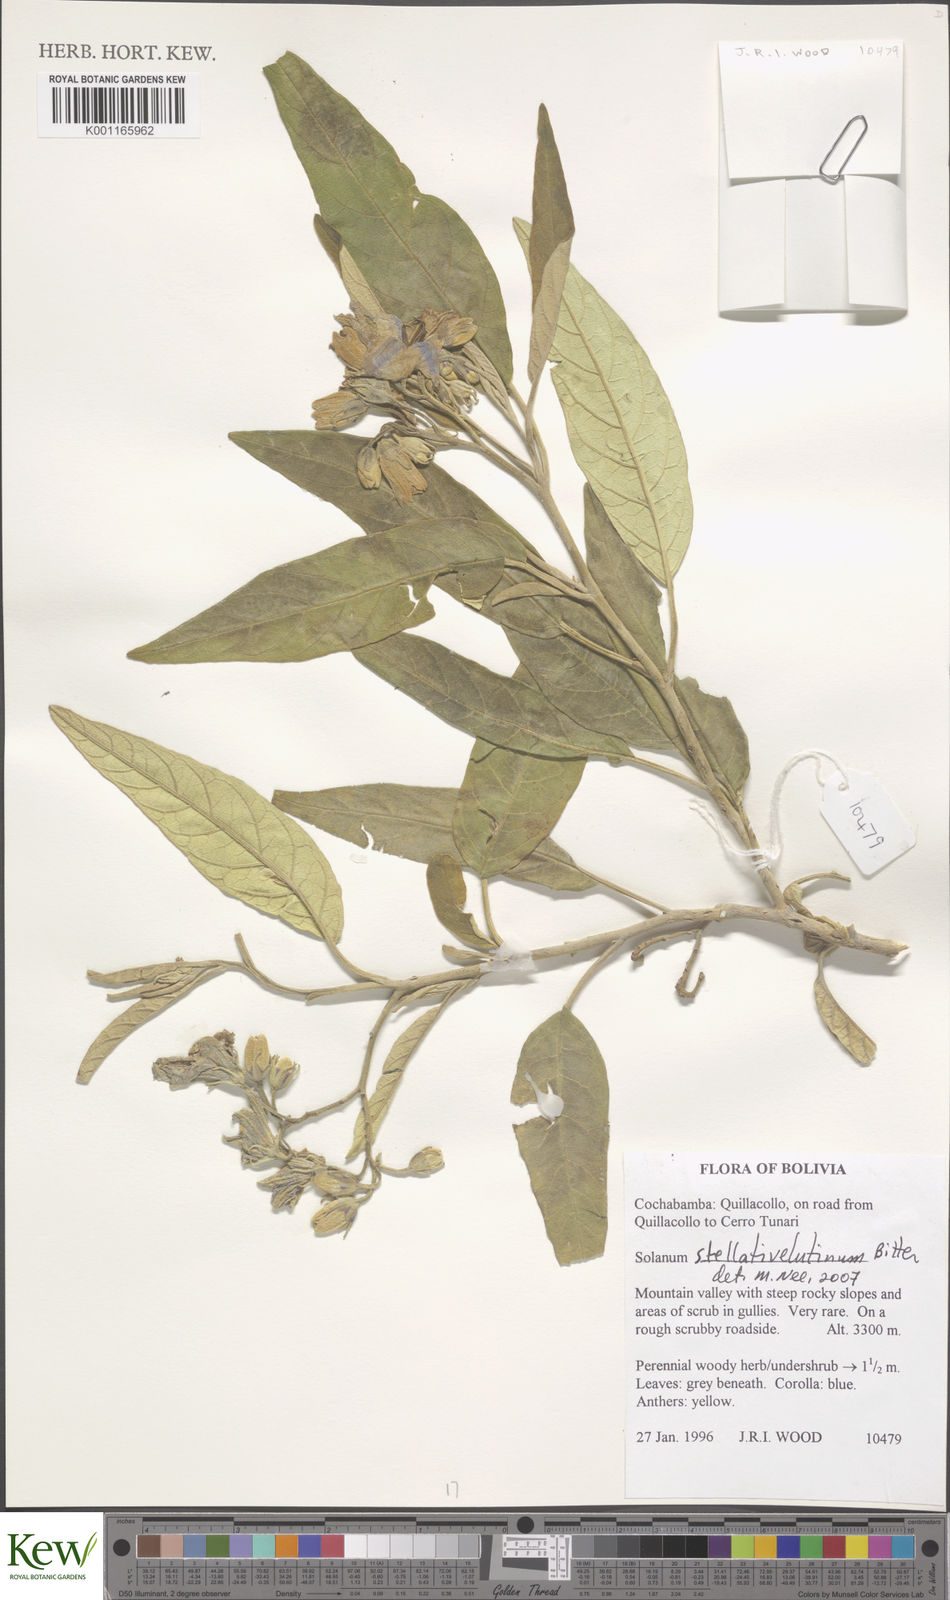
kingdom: Plantae
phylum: Tracheophyta
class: Magnoliopsida
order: Solanales
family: Solanaceae
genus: Solanum
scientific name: Solanum stellativelutinum
